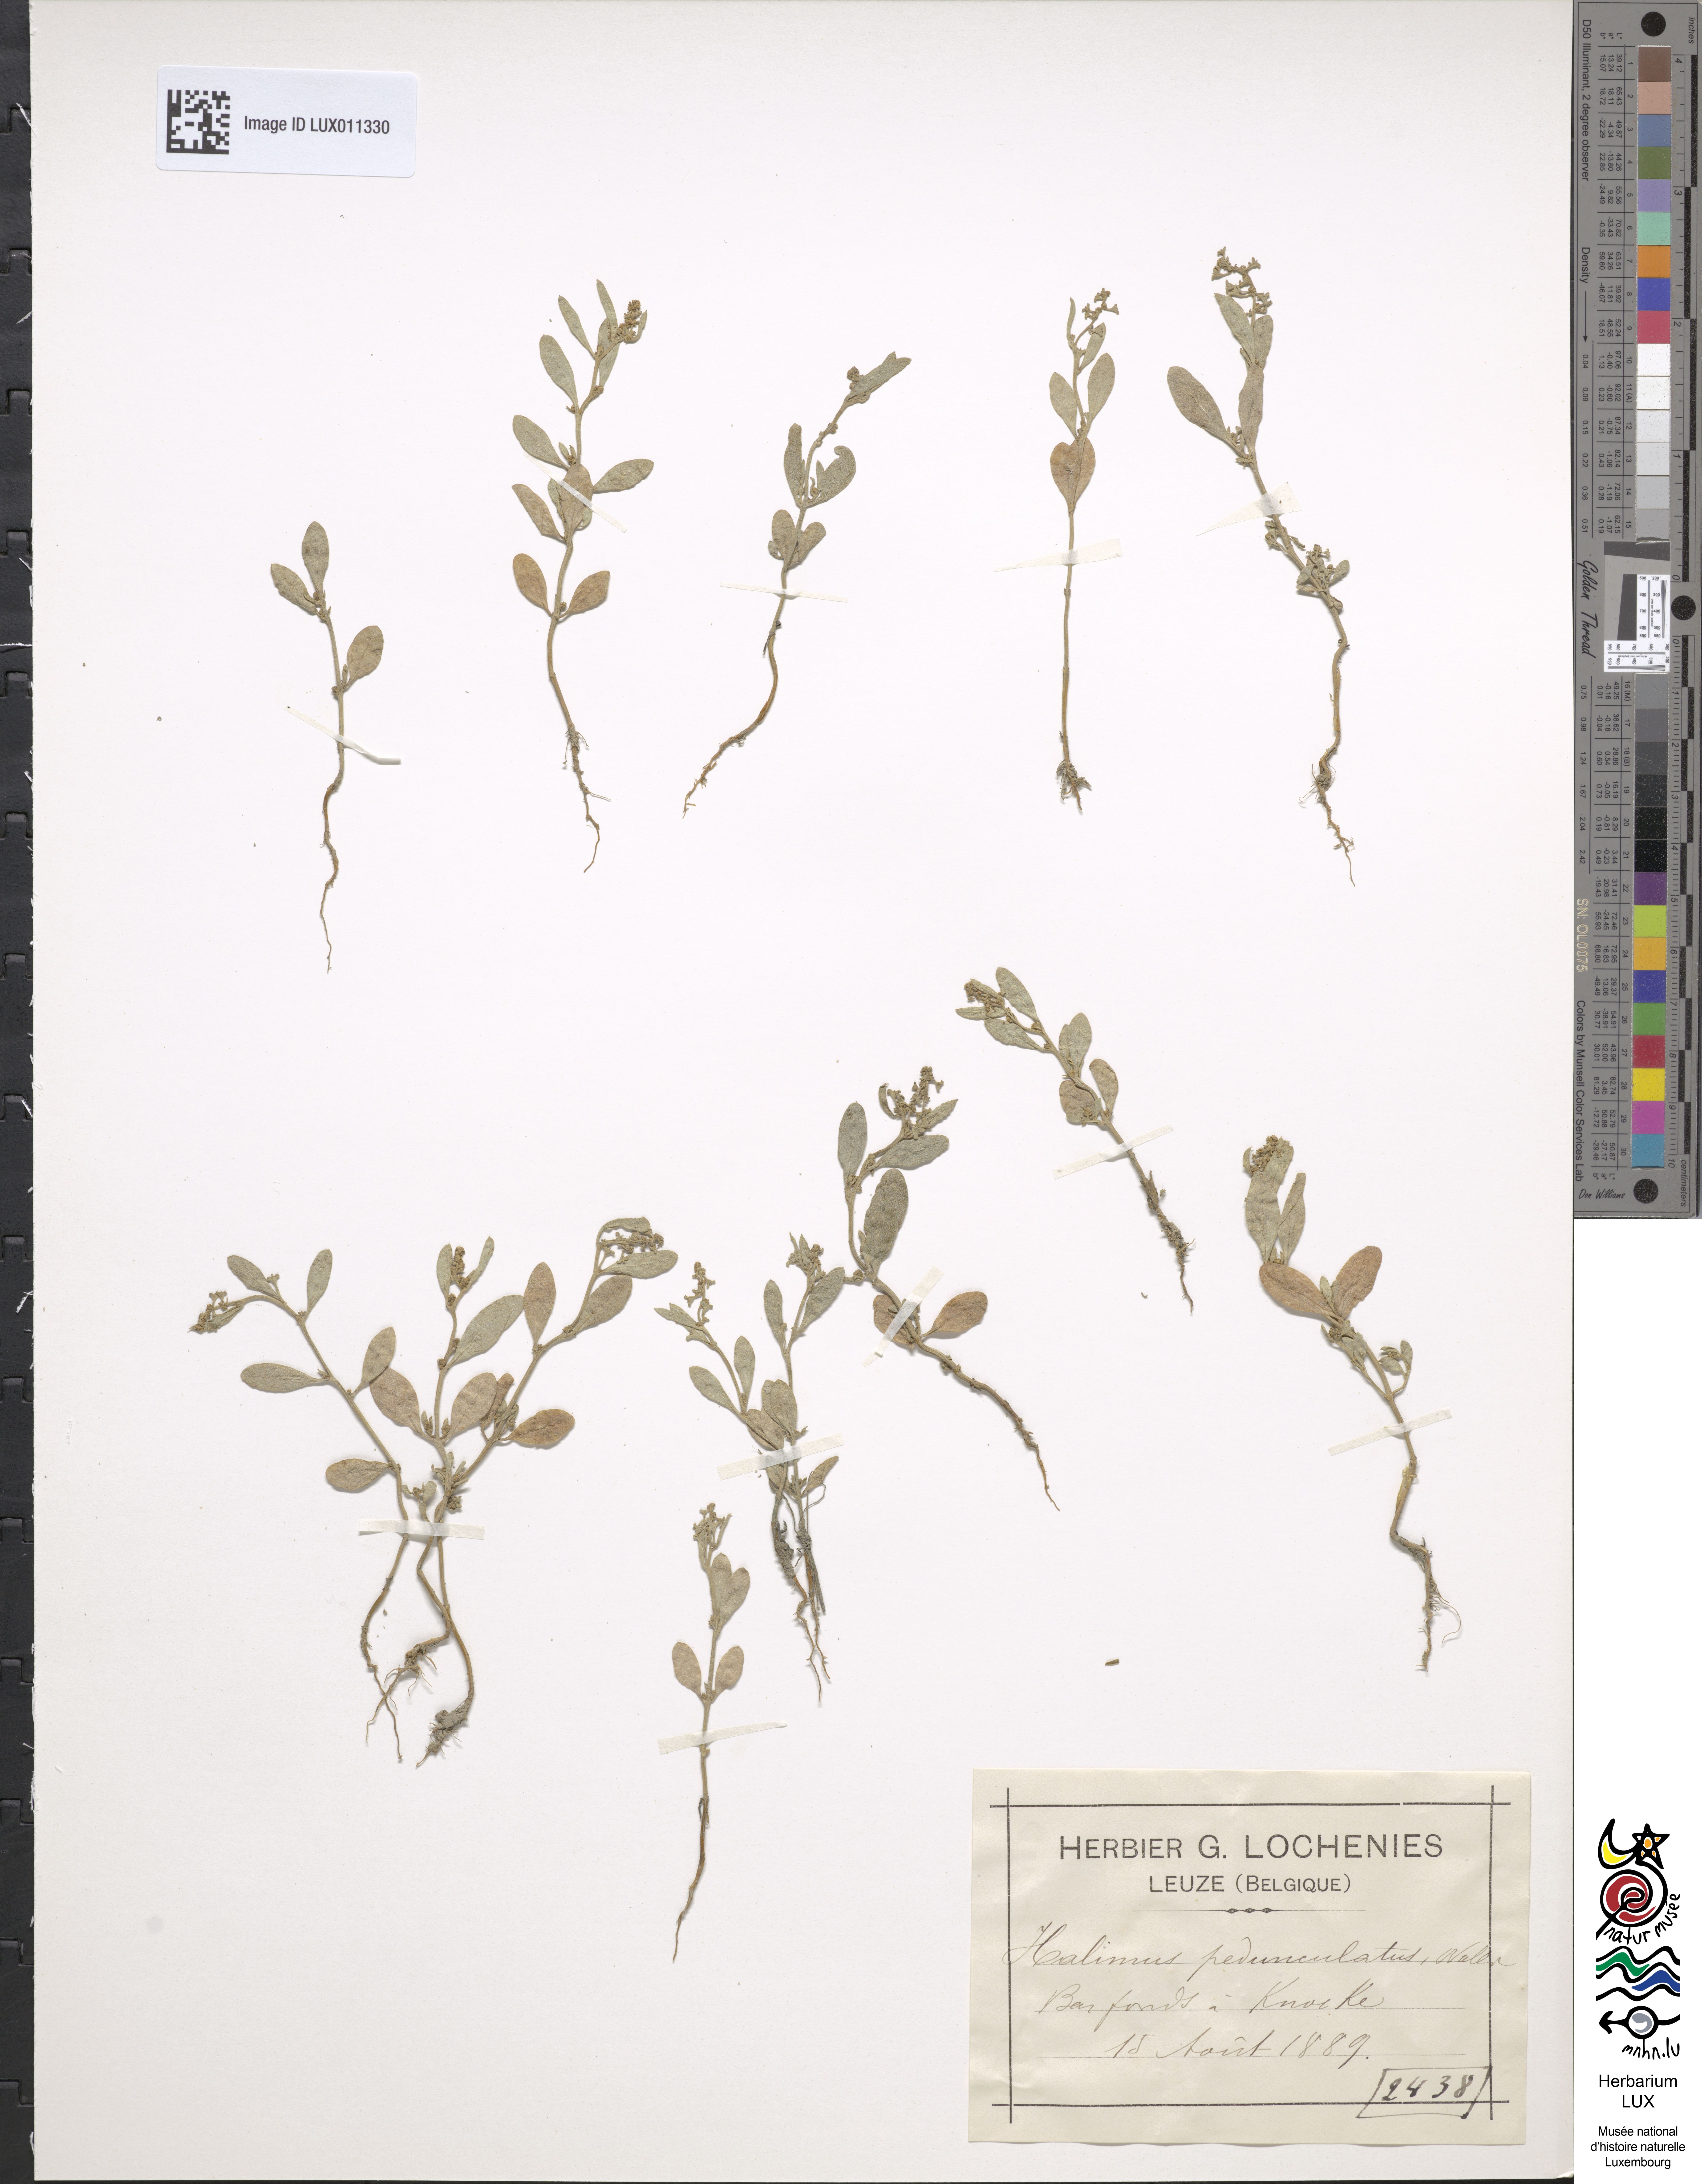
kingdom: Plantae
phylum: Tracheophyta
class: Magnoliopsida
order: Caryophyllales
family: Amaranthaceae
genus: Halimione
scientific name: Halimione pedunculata
